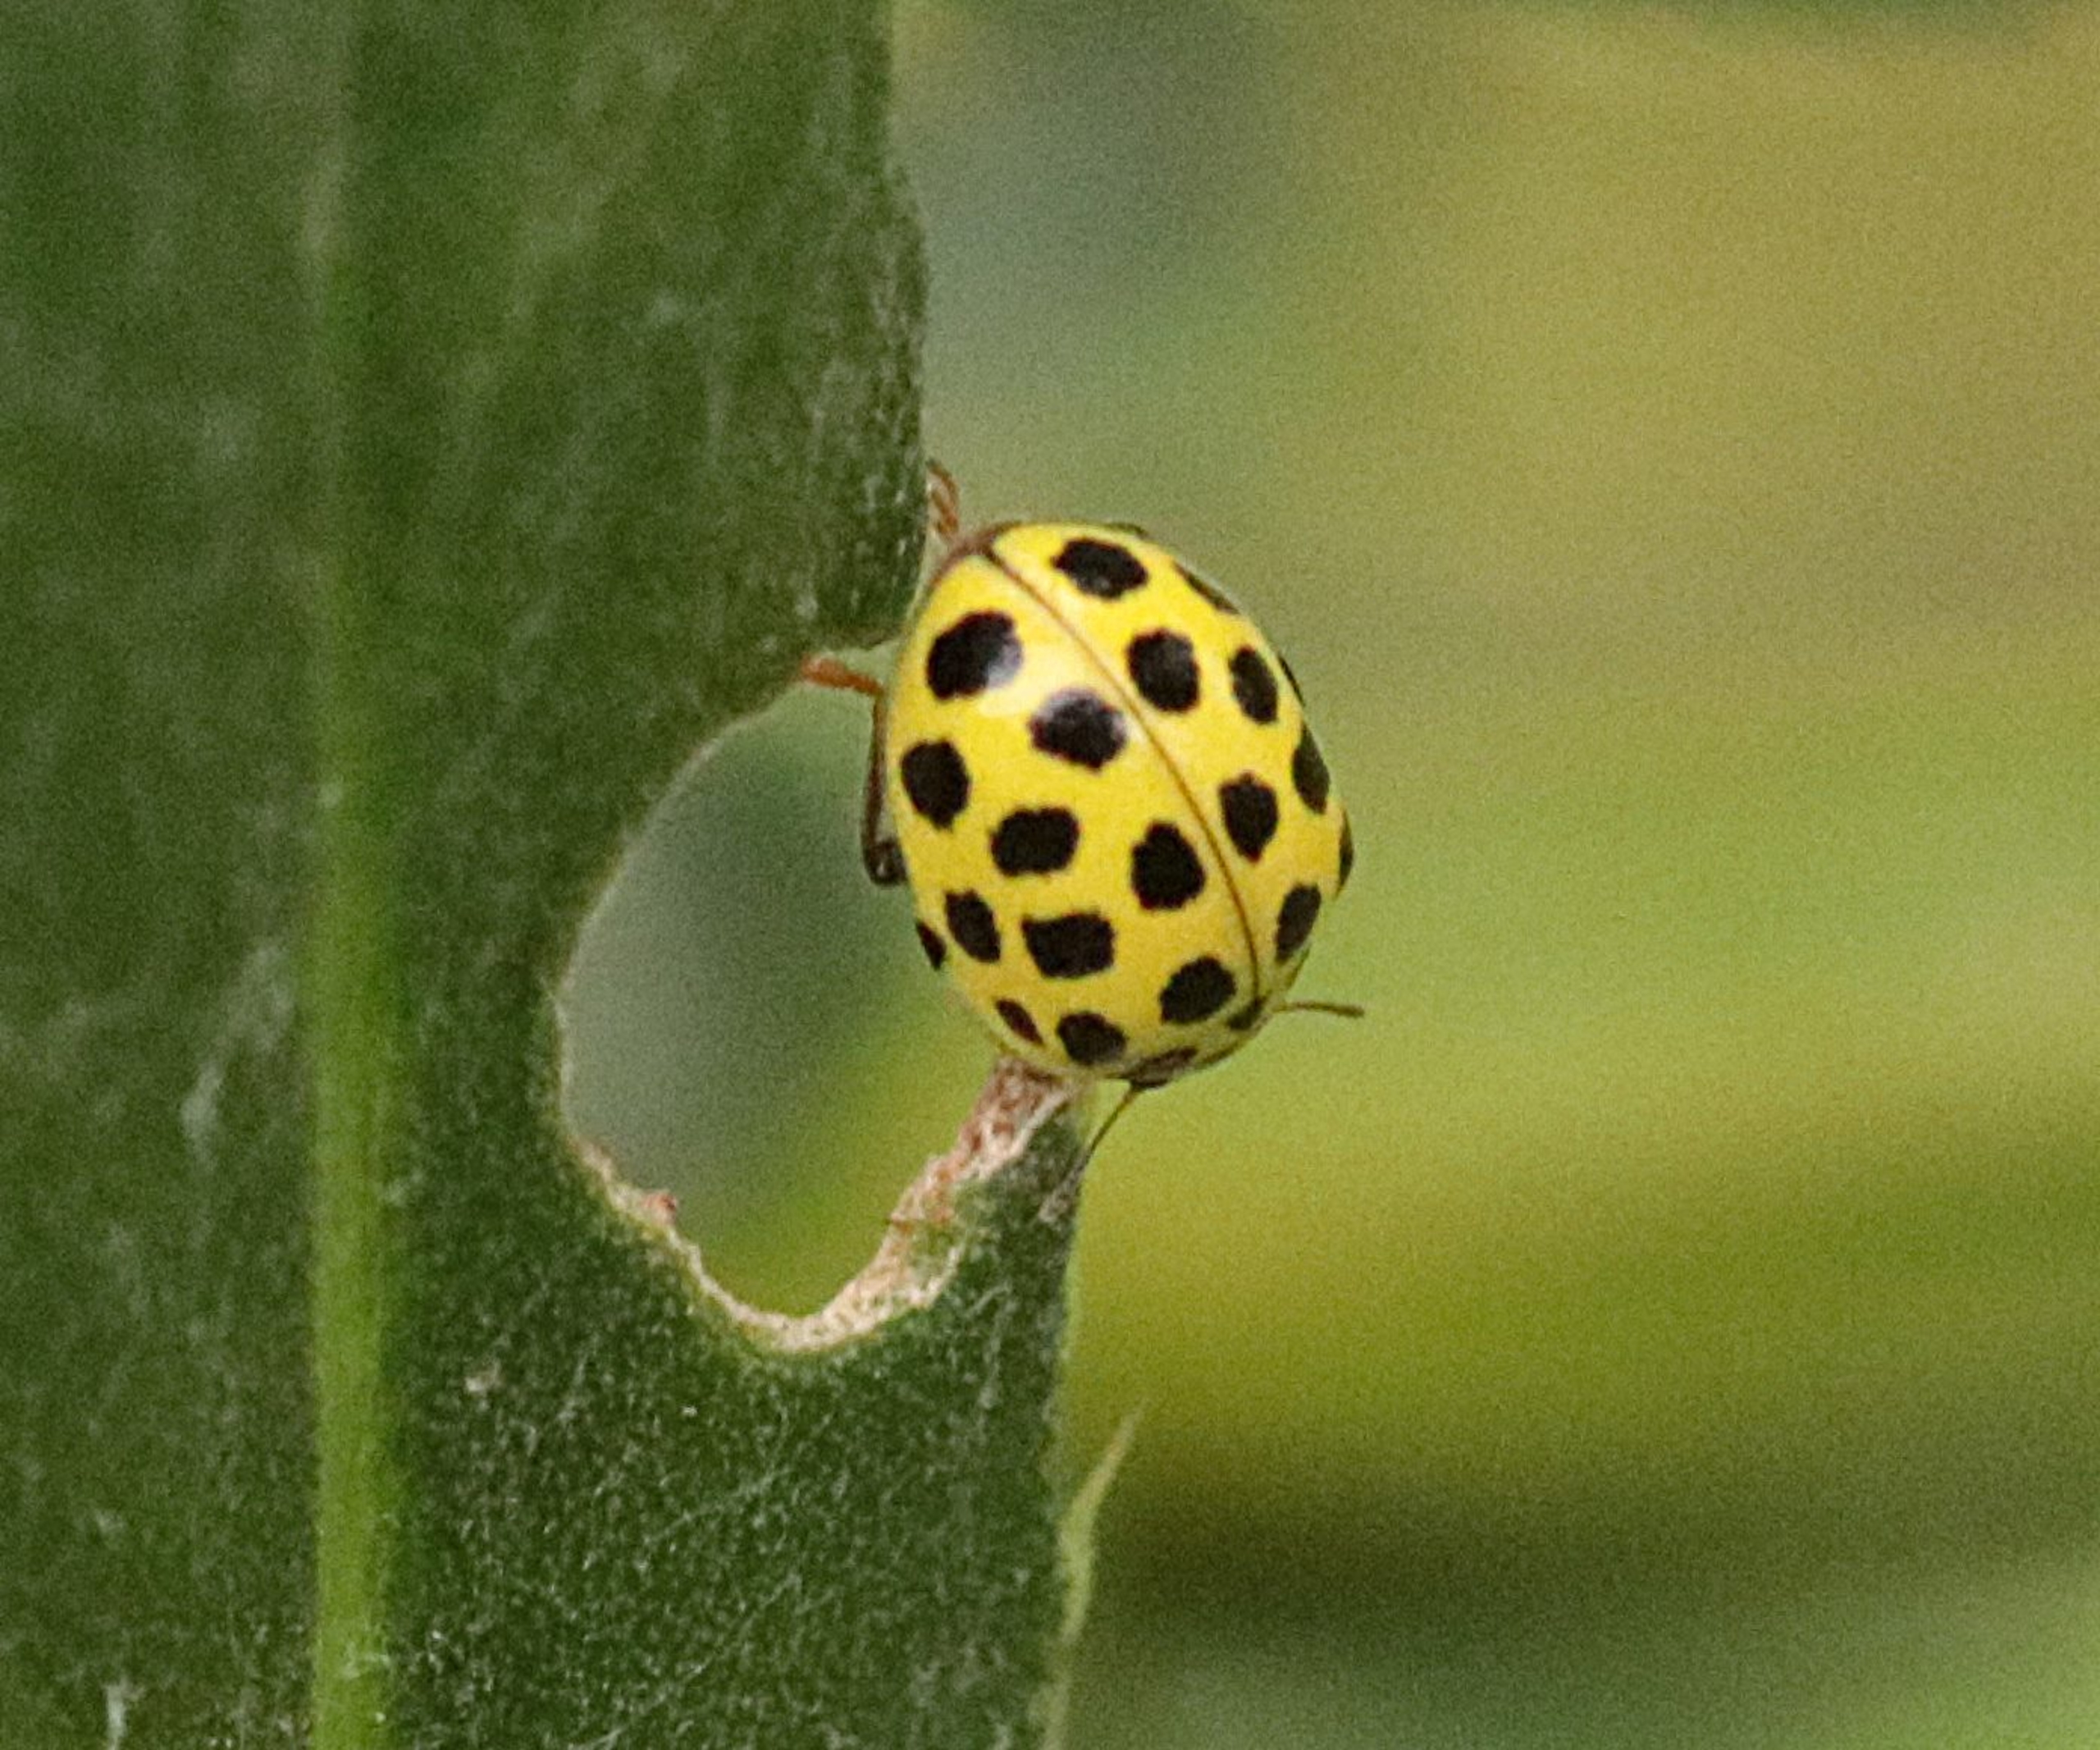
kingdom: Animalia
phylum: Arthropoda
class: Insecta
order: Coleoptera
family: Coccinellidae
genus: Psyllobora
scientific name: Psyllobora vigintiduopunctata
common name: Toogtyveplettet mariehøne
